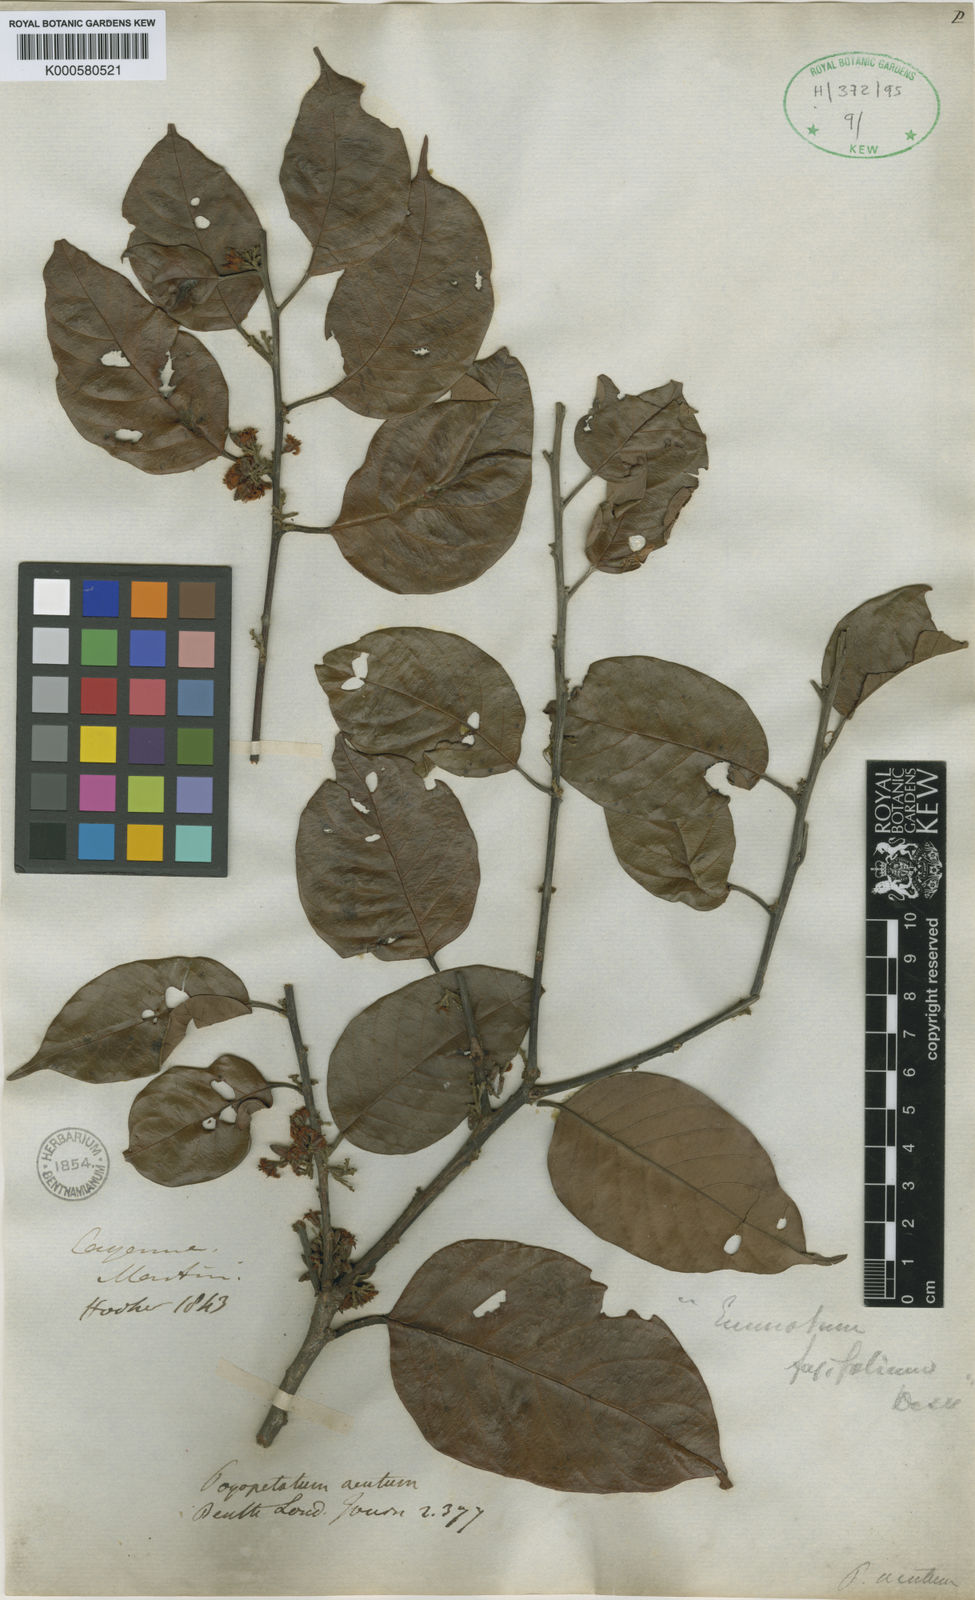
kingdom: Plantae
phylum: Tracheophyta
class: Magnoliopsida
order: Metteniusales
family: Metteniusaceae
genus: Emmotum
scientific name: Emmotum fagifolium
